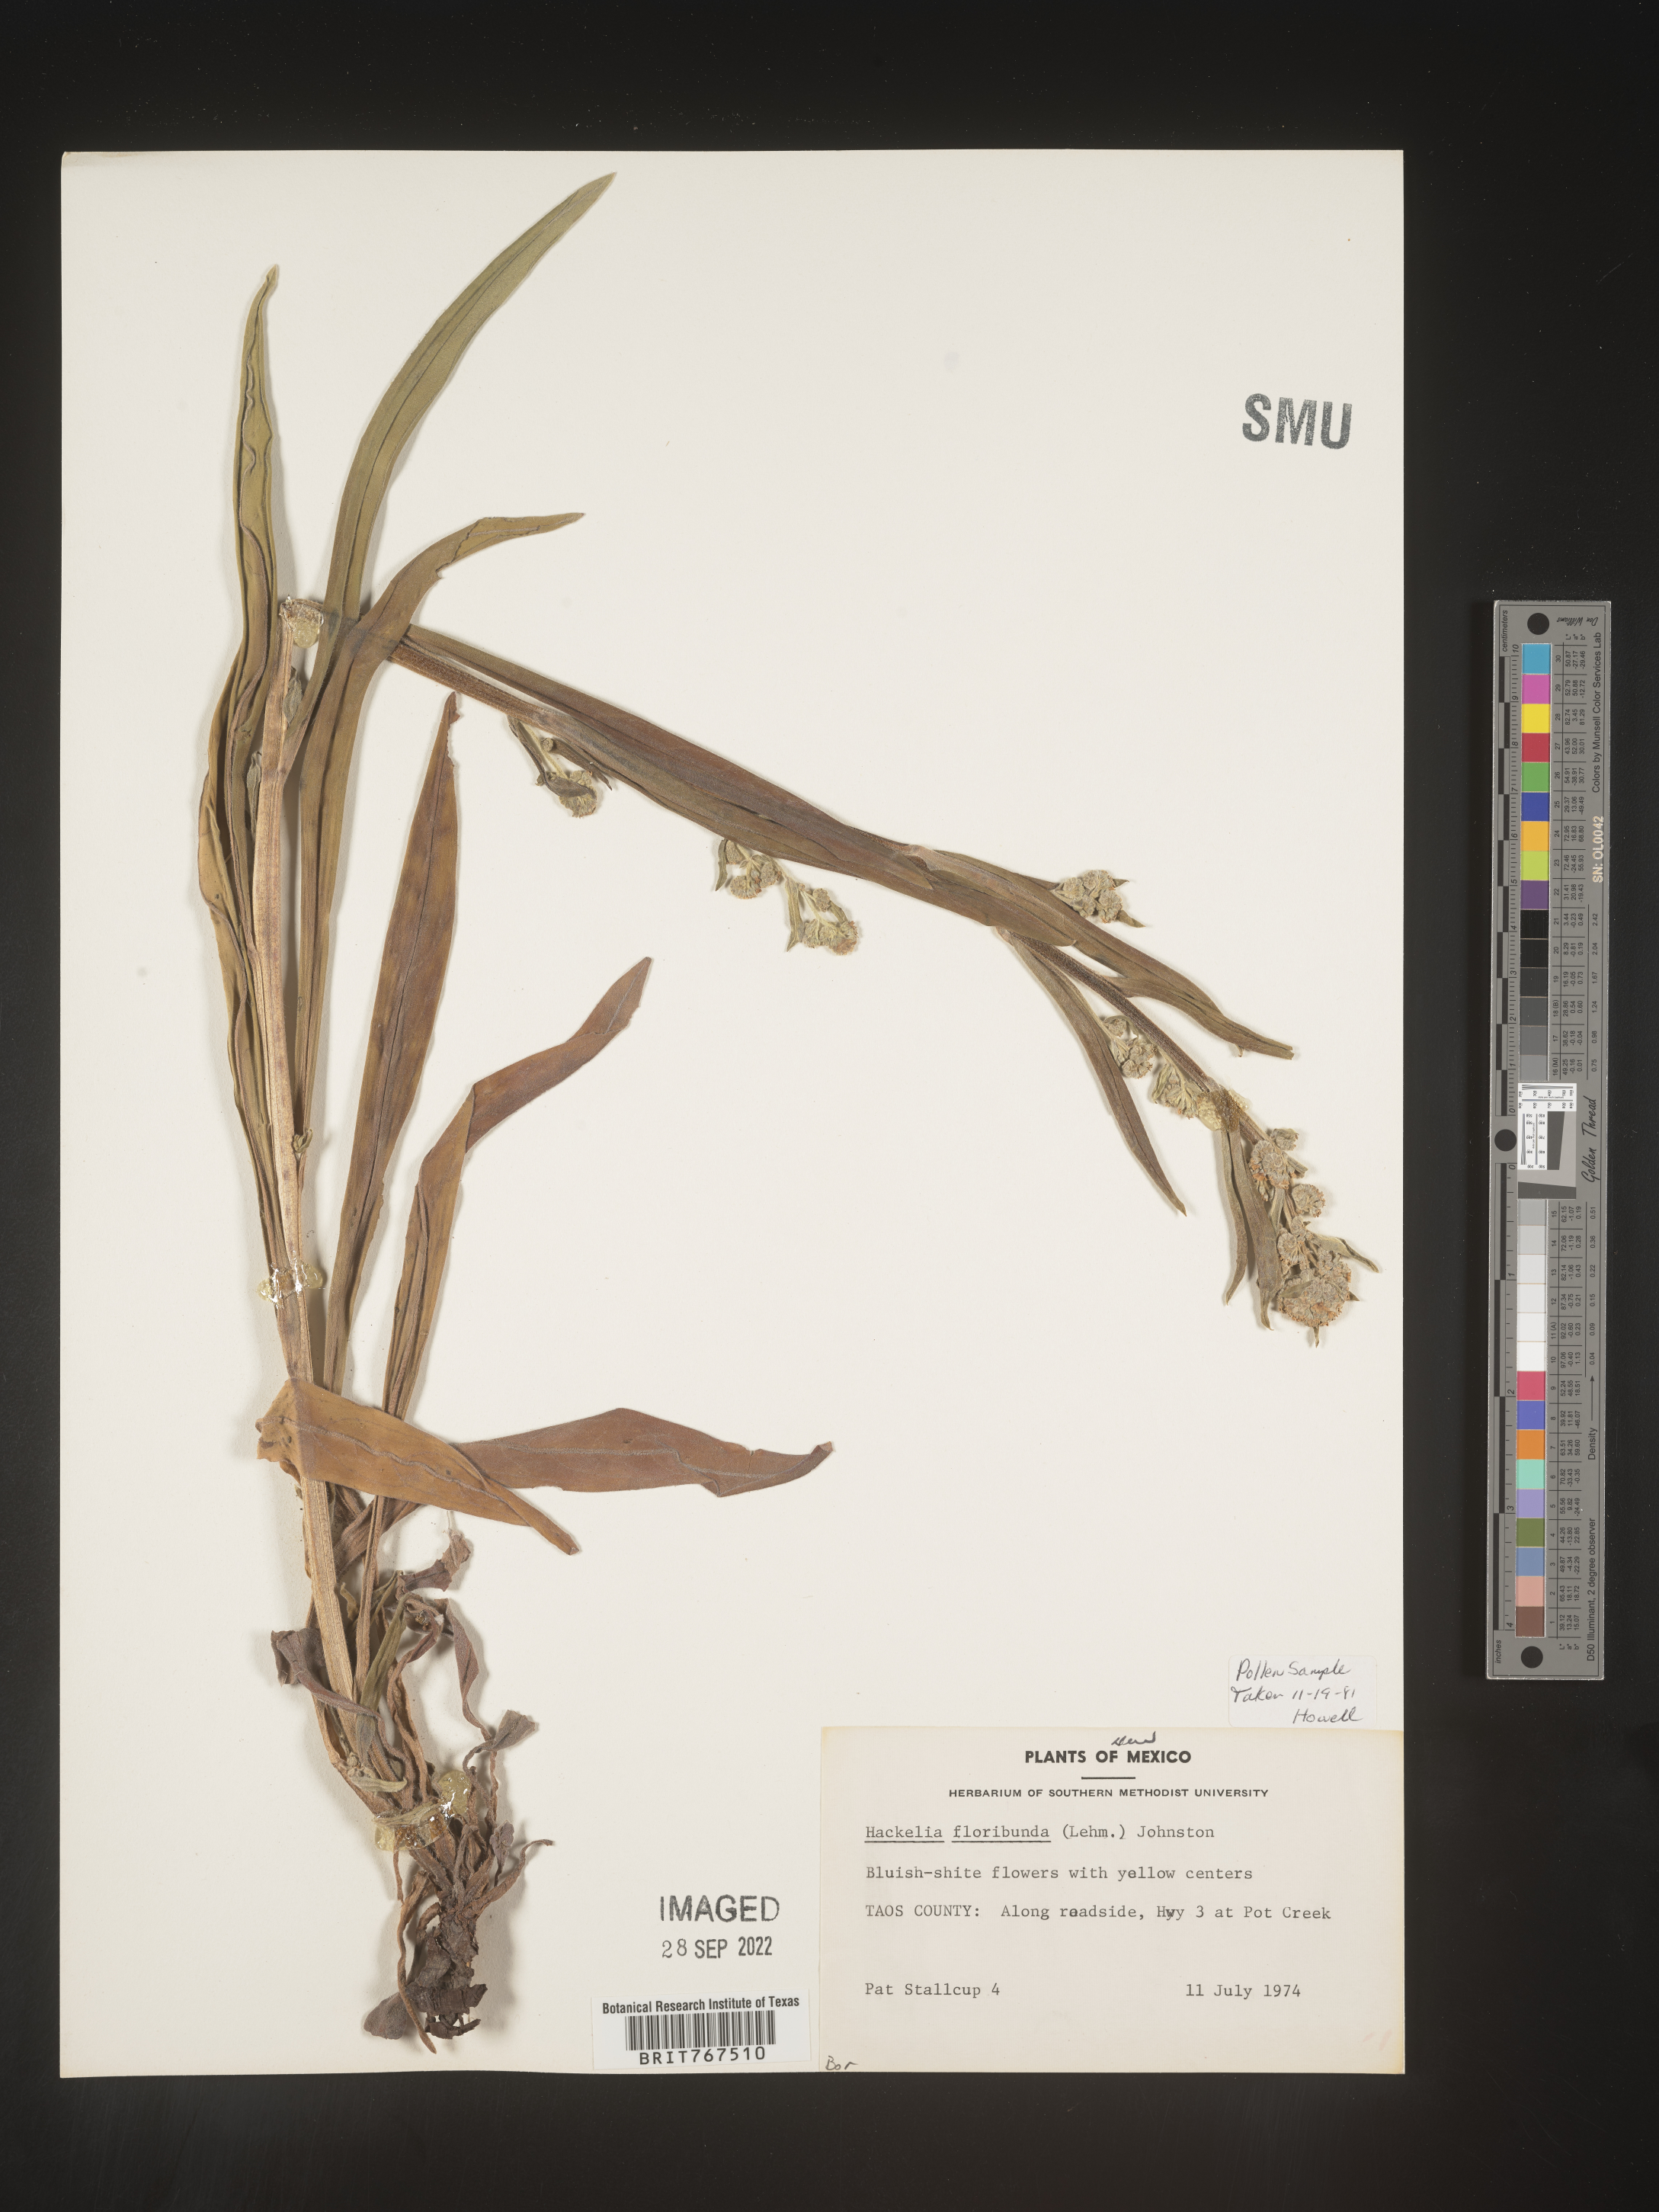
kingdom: Plantae
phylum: Tracheophyta
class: Magnoliopsida
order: Boraginales
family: Boraginaceae
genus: Hackelia
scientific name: Hackelia floribunda
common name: Large-flowered stickseed
